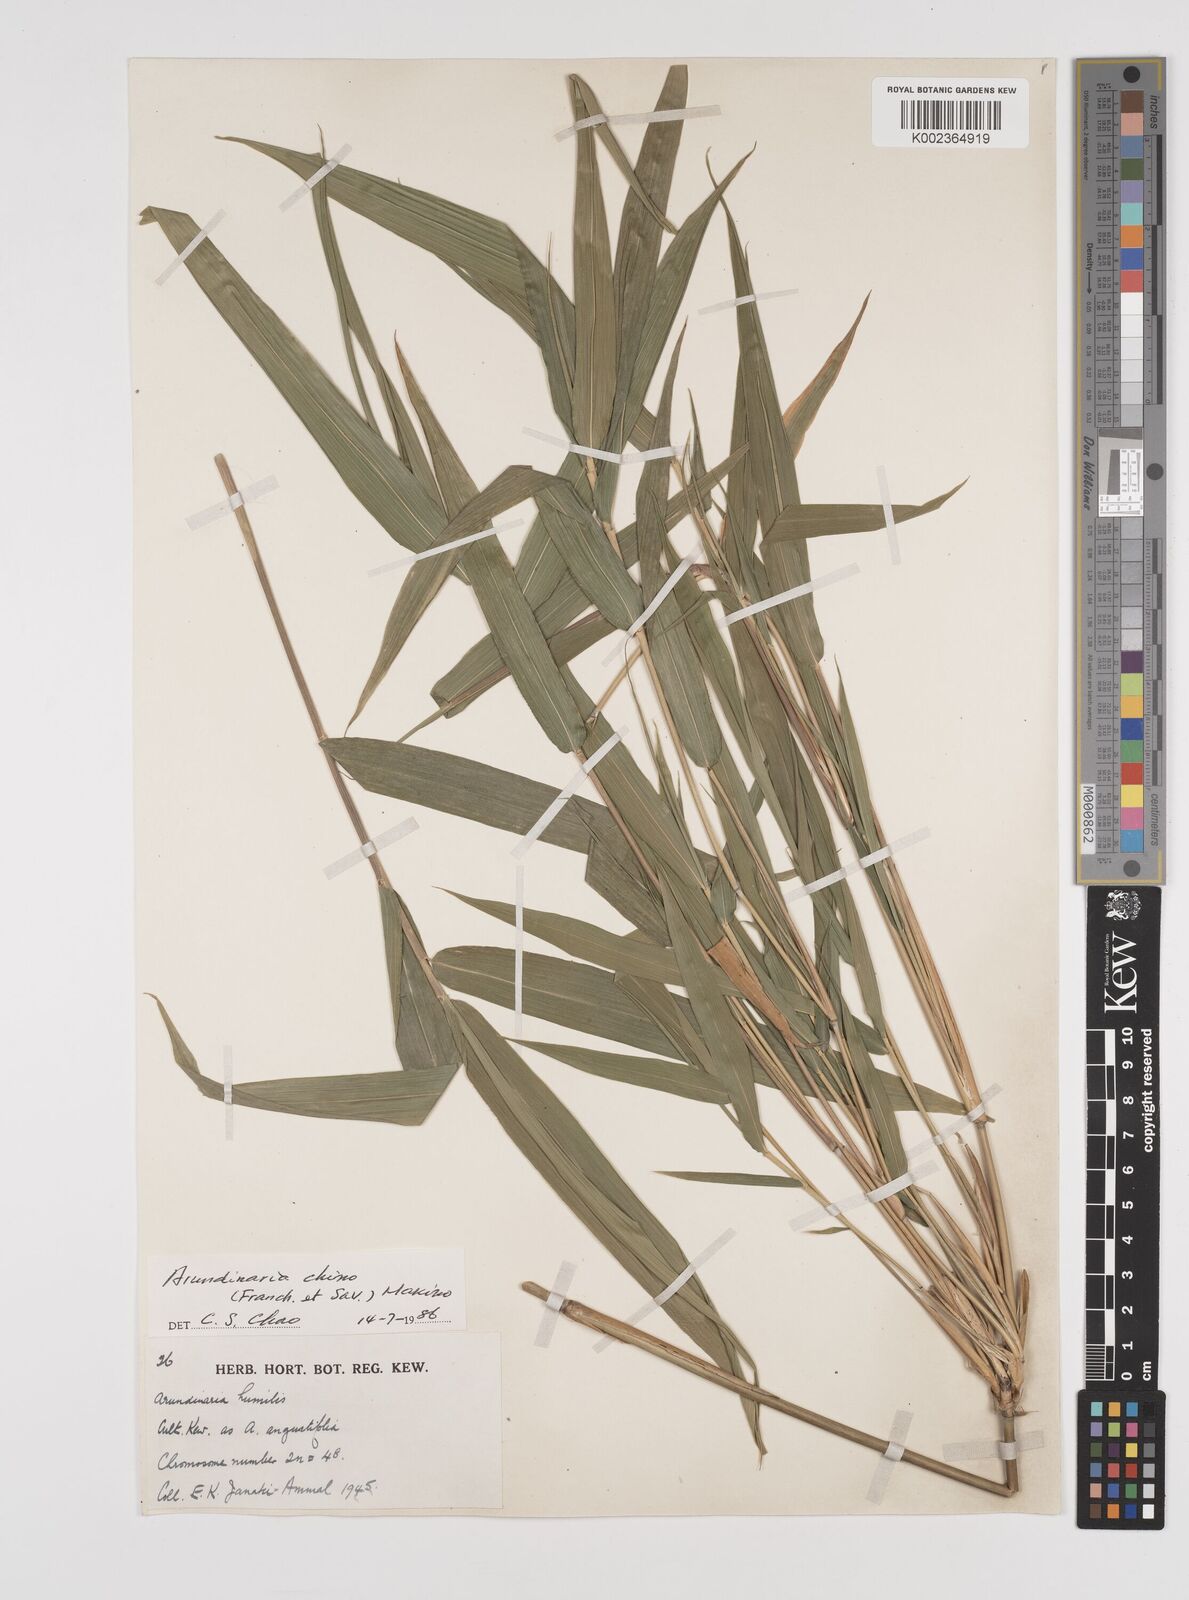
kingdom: Plantae
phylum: Tracheophyta
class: Liliopsida
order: Poales
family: Poaceae
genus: Pleioblastus
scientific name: Pleioblastus argenteostriatus
